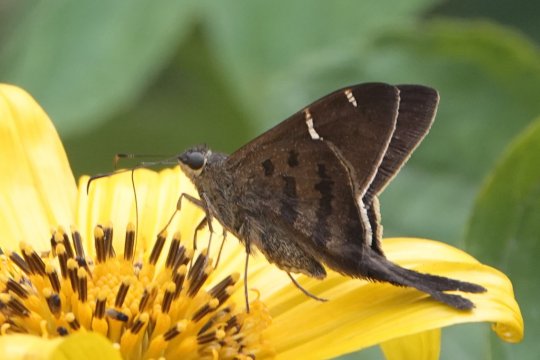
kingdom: Animalia
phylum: Arthropoda
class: Insecta
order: Lepidoptera
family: Hesperiidae
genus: Urbanus
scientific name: Urbanus tanna
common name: Tanna Longtail
